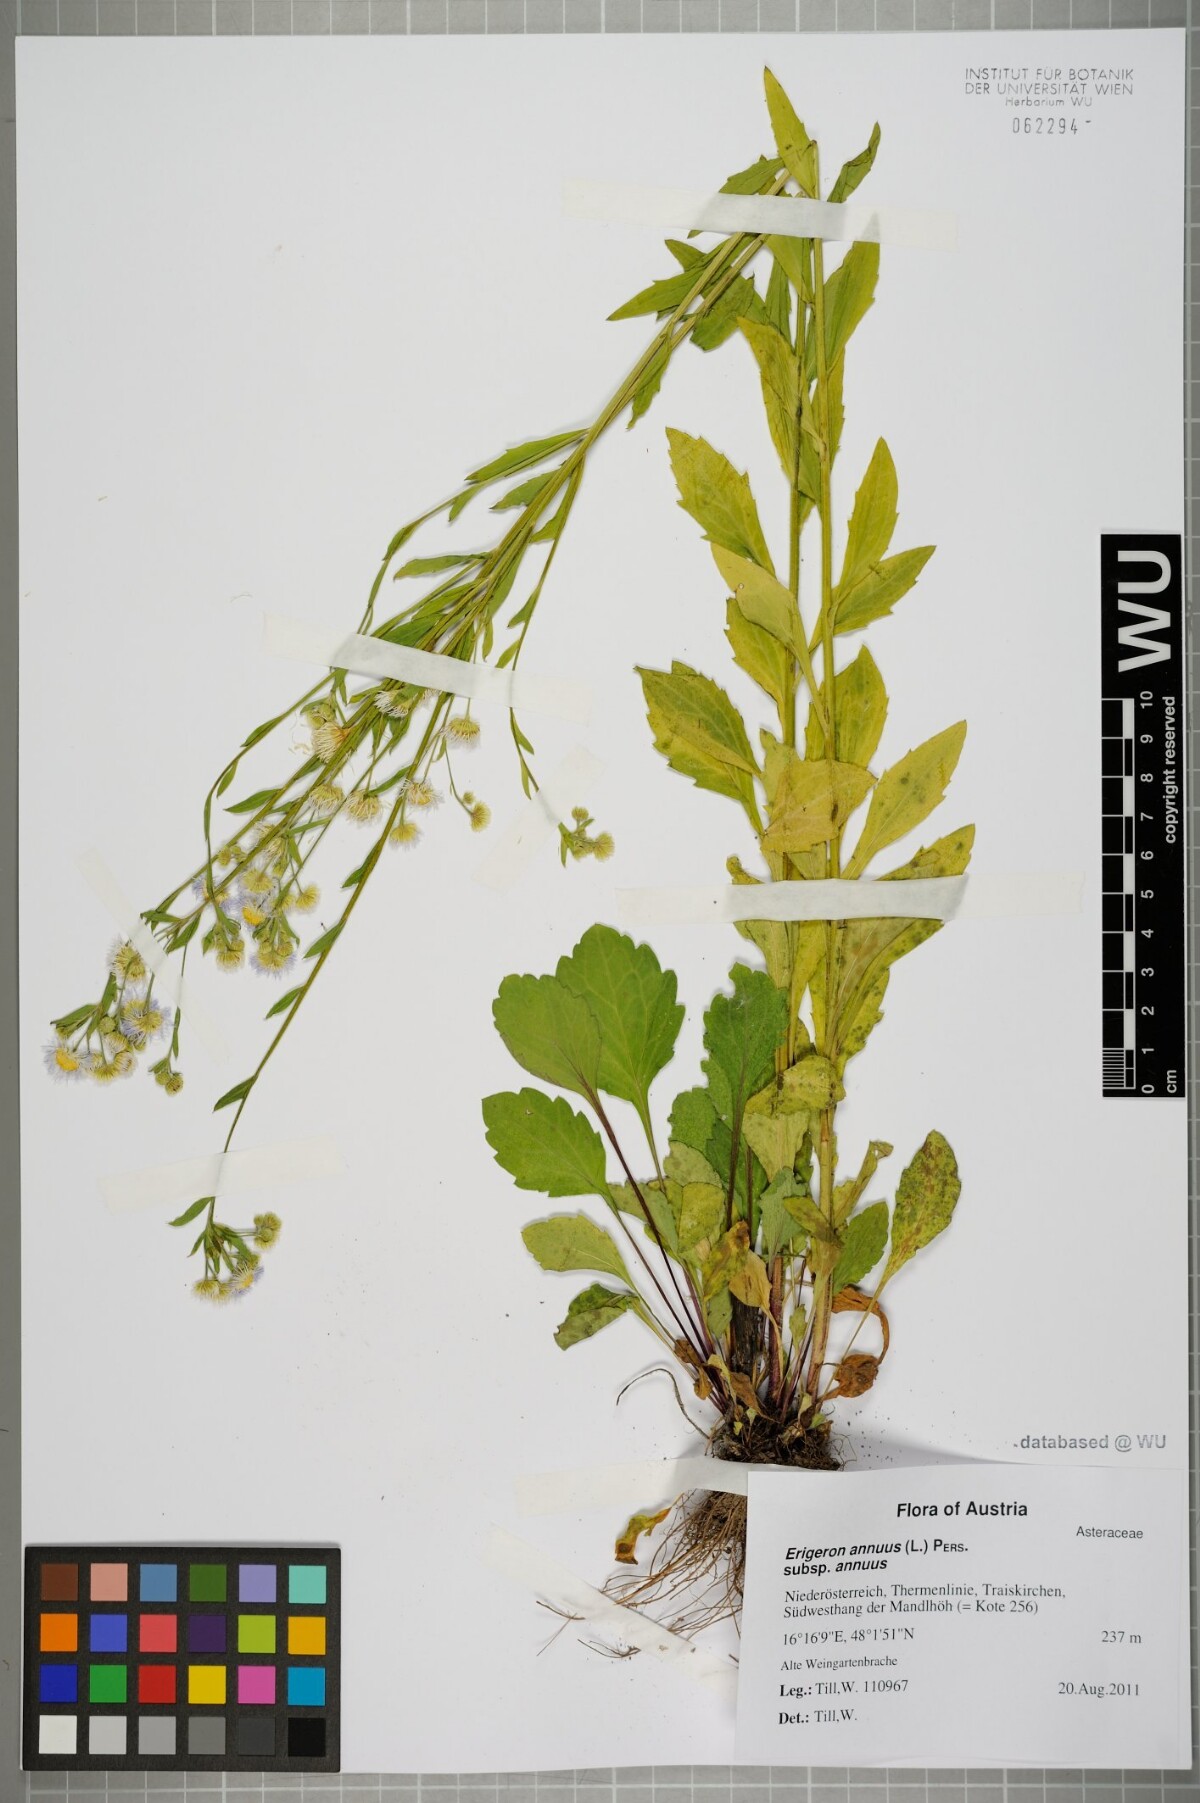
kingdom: Plantae
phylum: Tracheophyta
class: Magnoliopsida
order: Asterales
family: Asteraceae
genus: Erigeron
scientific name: Erigeron annuus
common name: Tall fleabane
